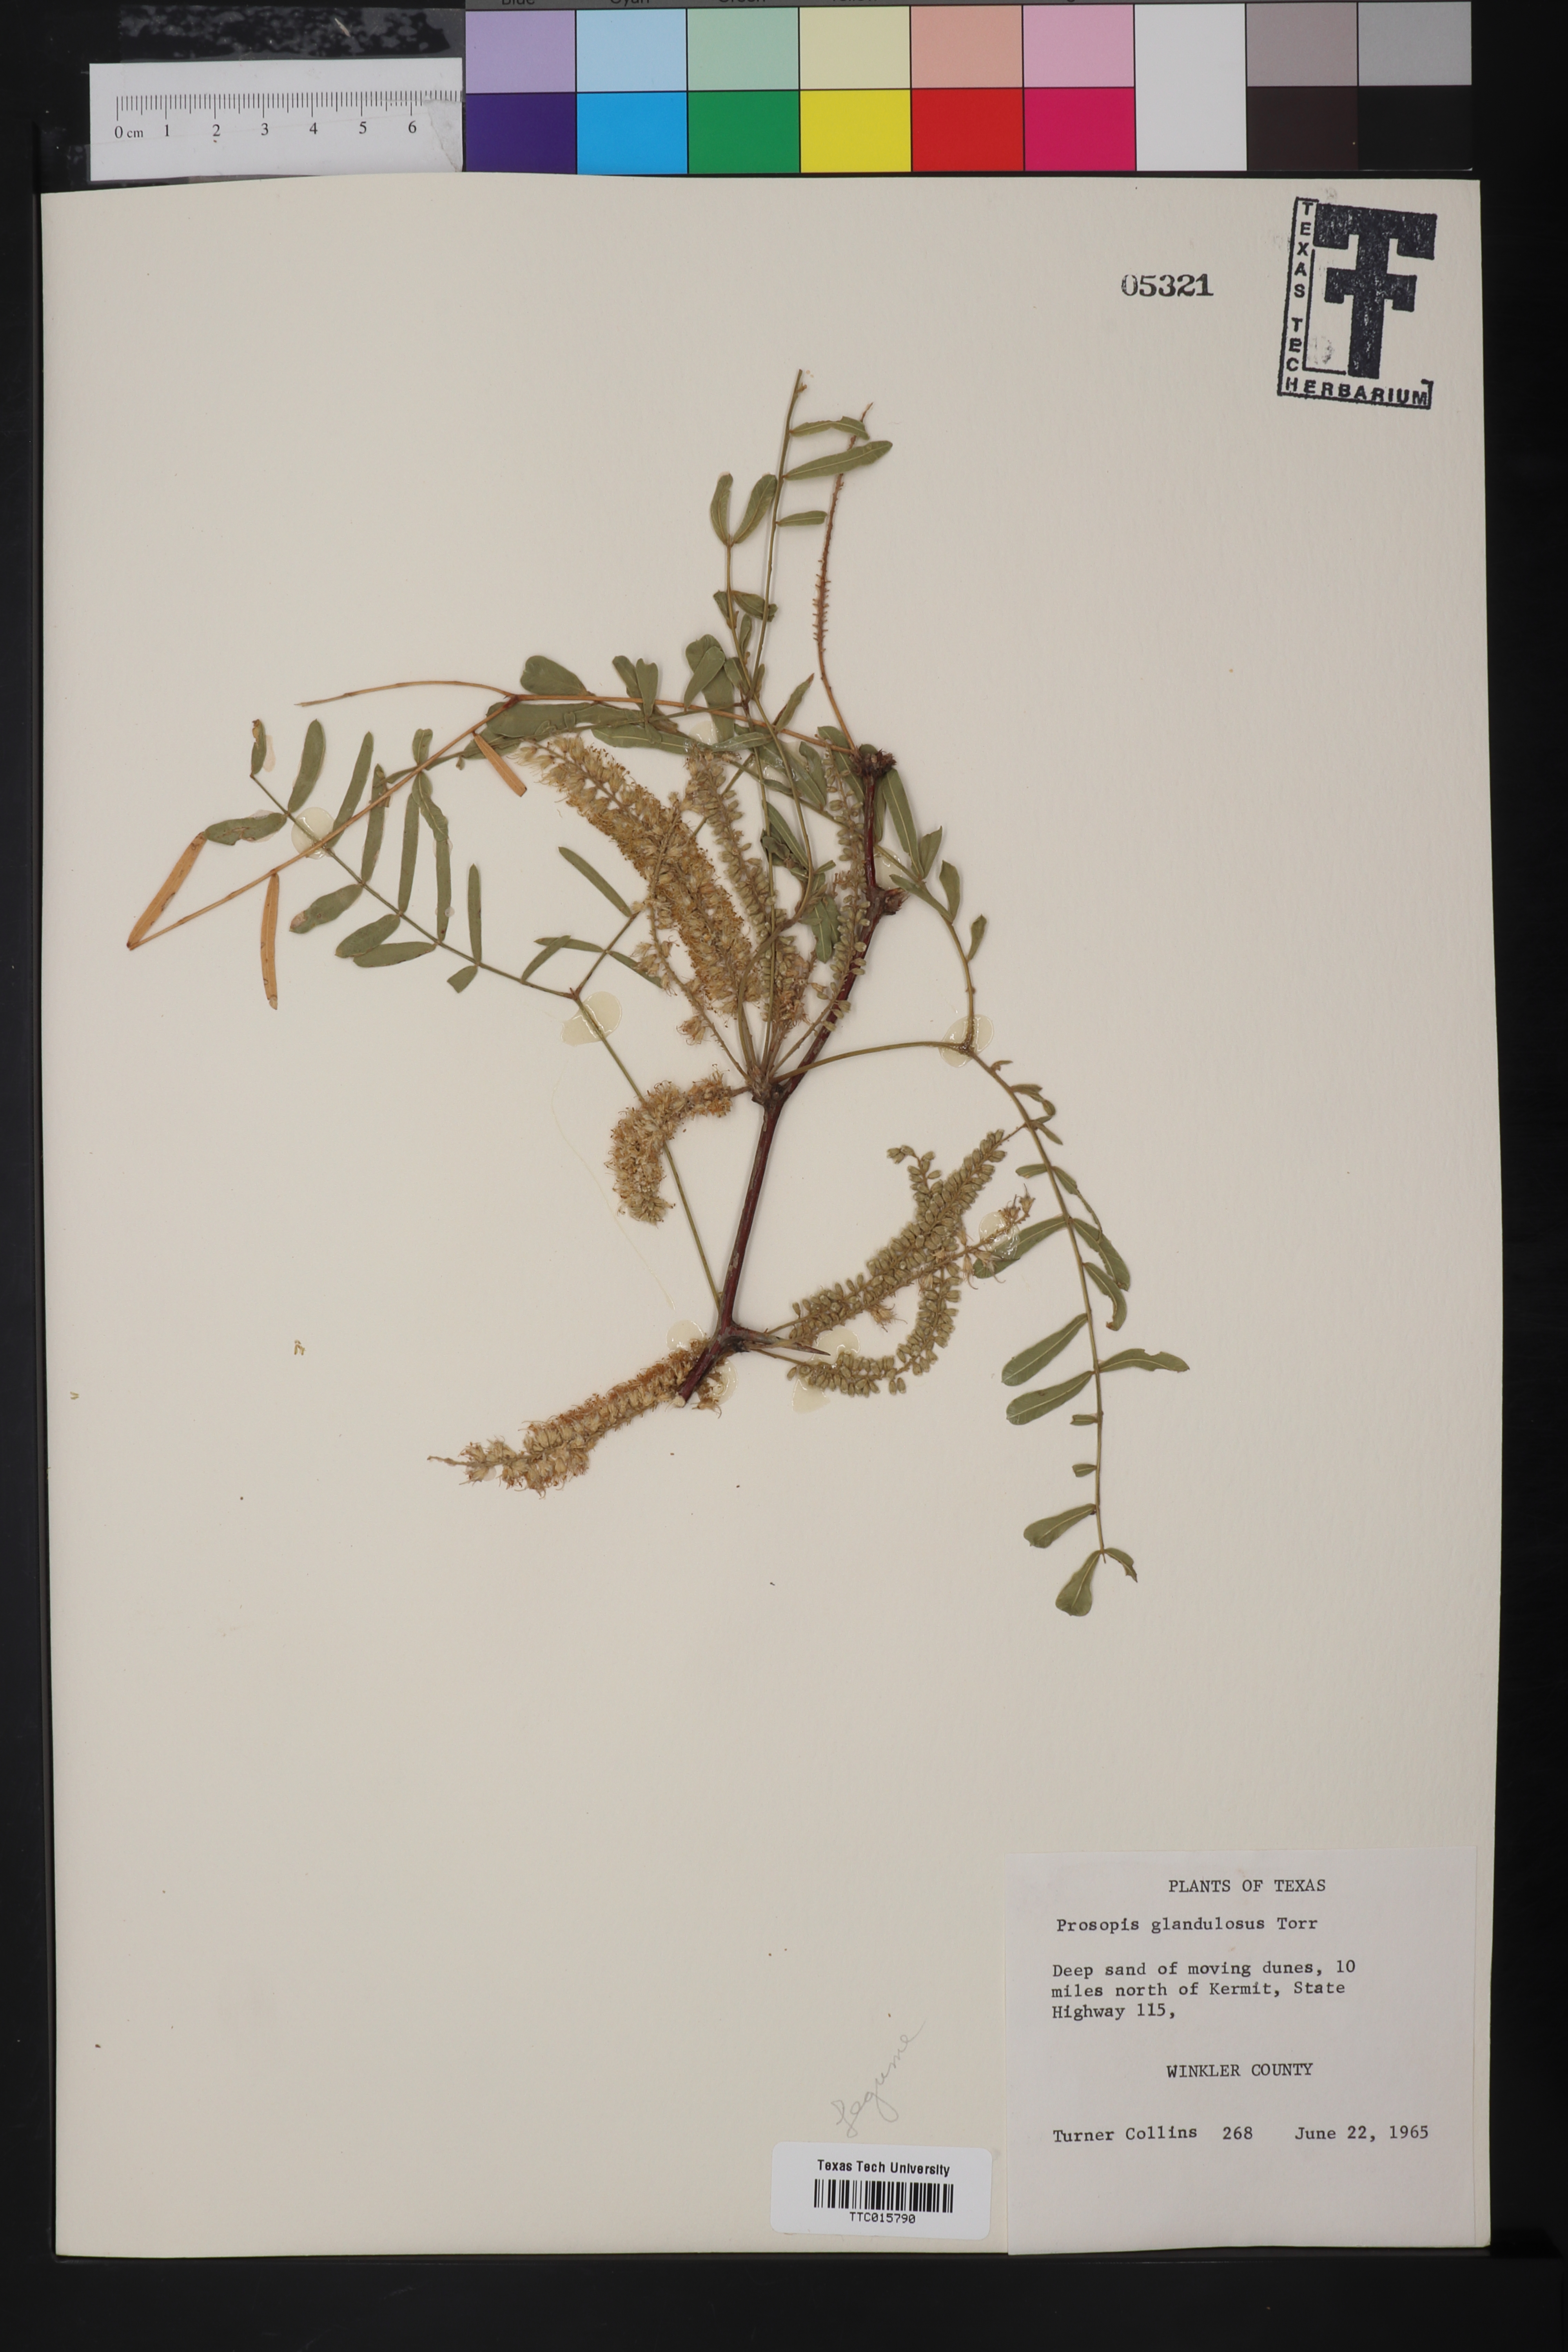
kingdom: Plantae
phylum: Tracheophyta
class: Magnoliopsida
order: Fabales
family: Fabaceae
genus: Prosopis
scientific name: Prosopis glandulosa
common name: Honey mesquite
